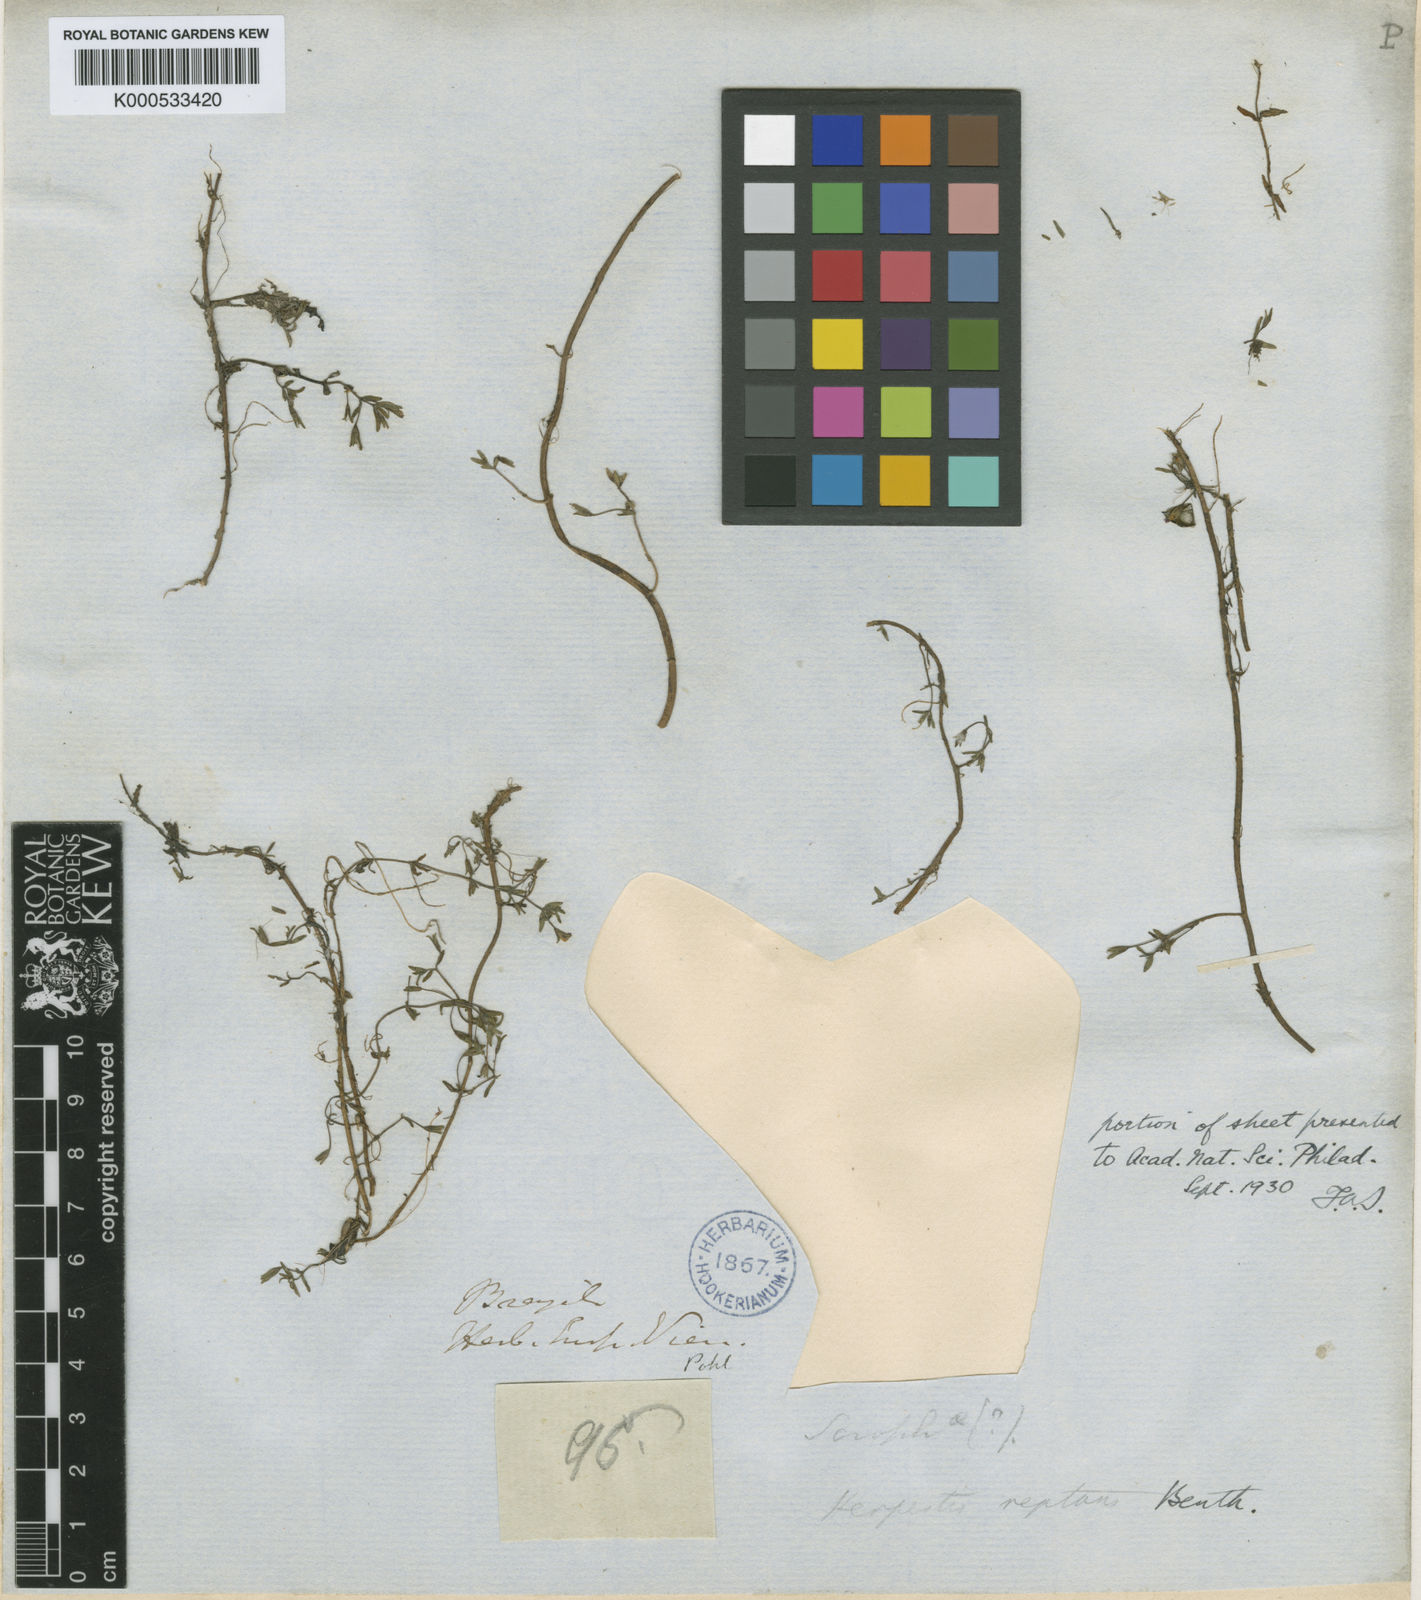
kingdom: Plantae
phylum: Tracheophyta
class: Magnoliopsida
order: Lamiales
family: Plantaginaceae
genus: Bacopa
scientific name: Bacopa
